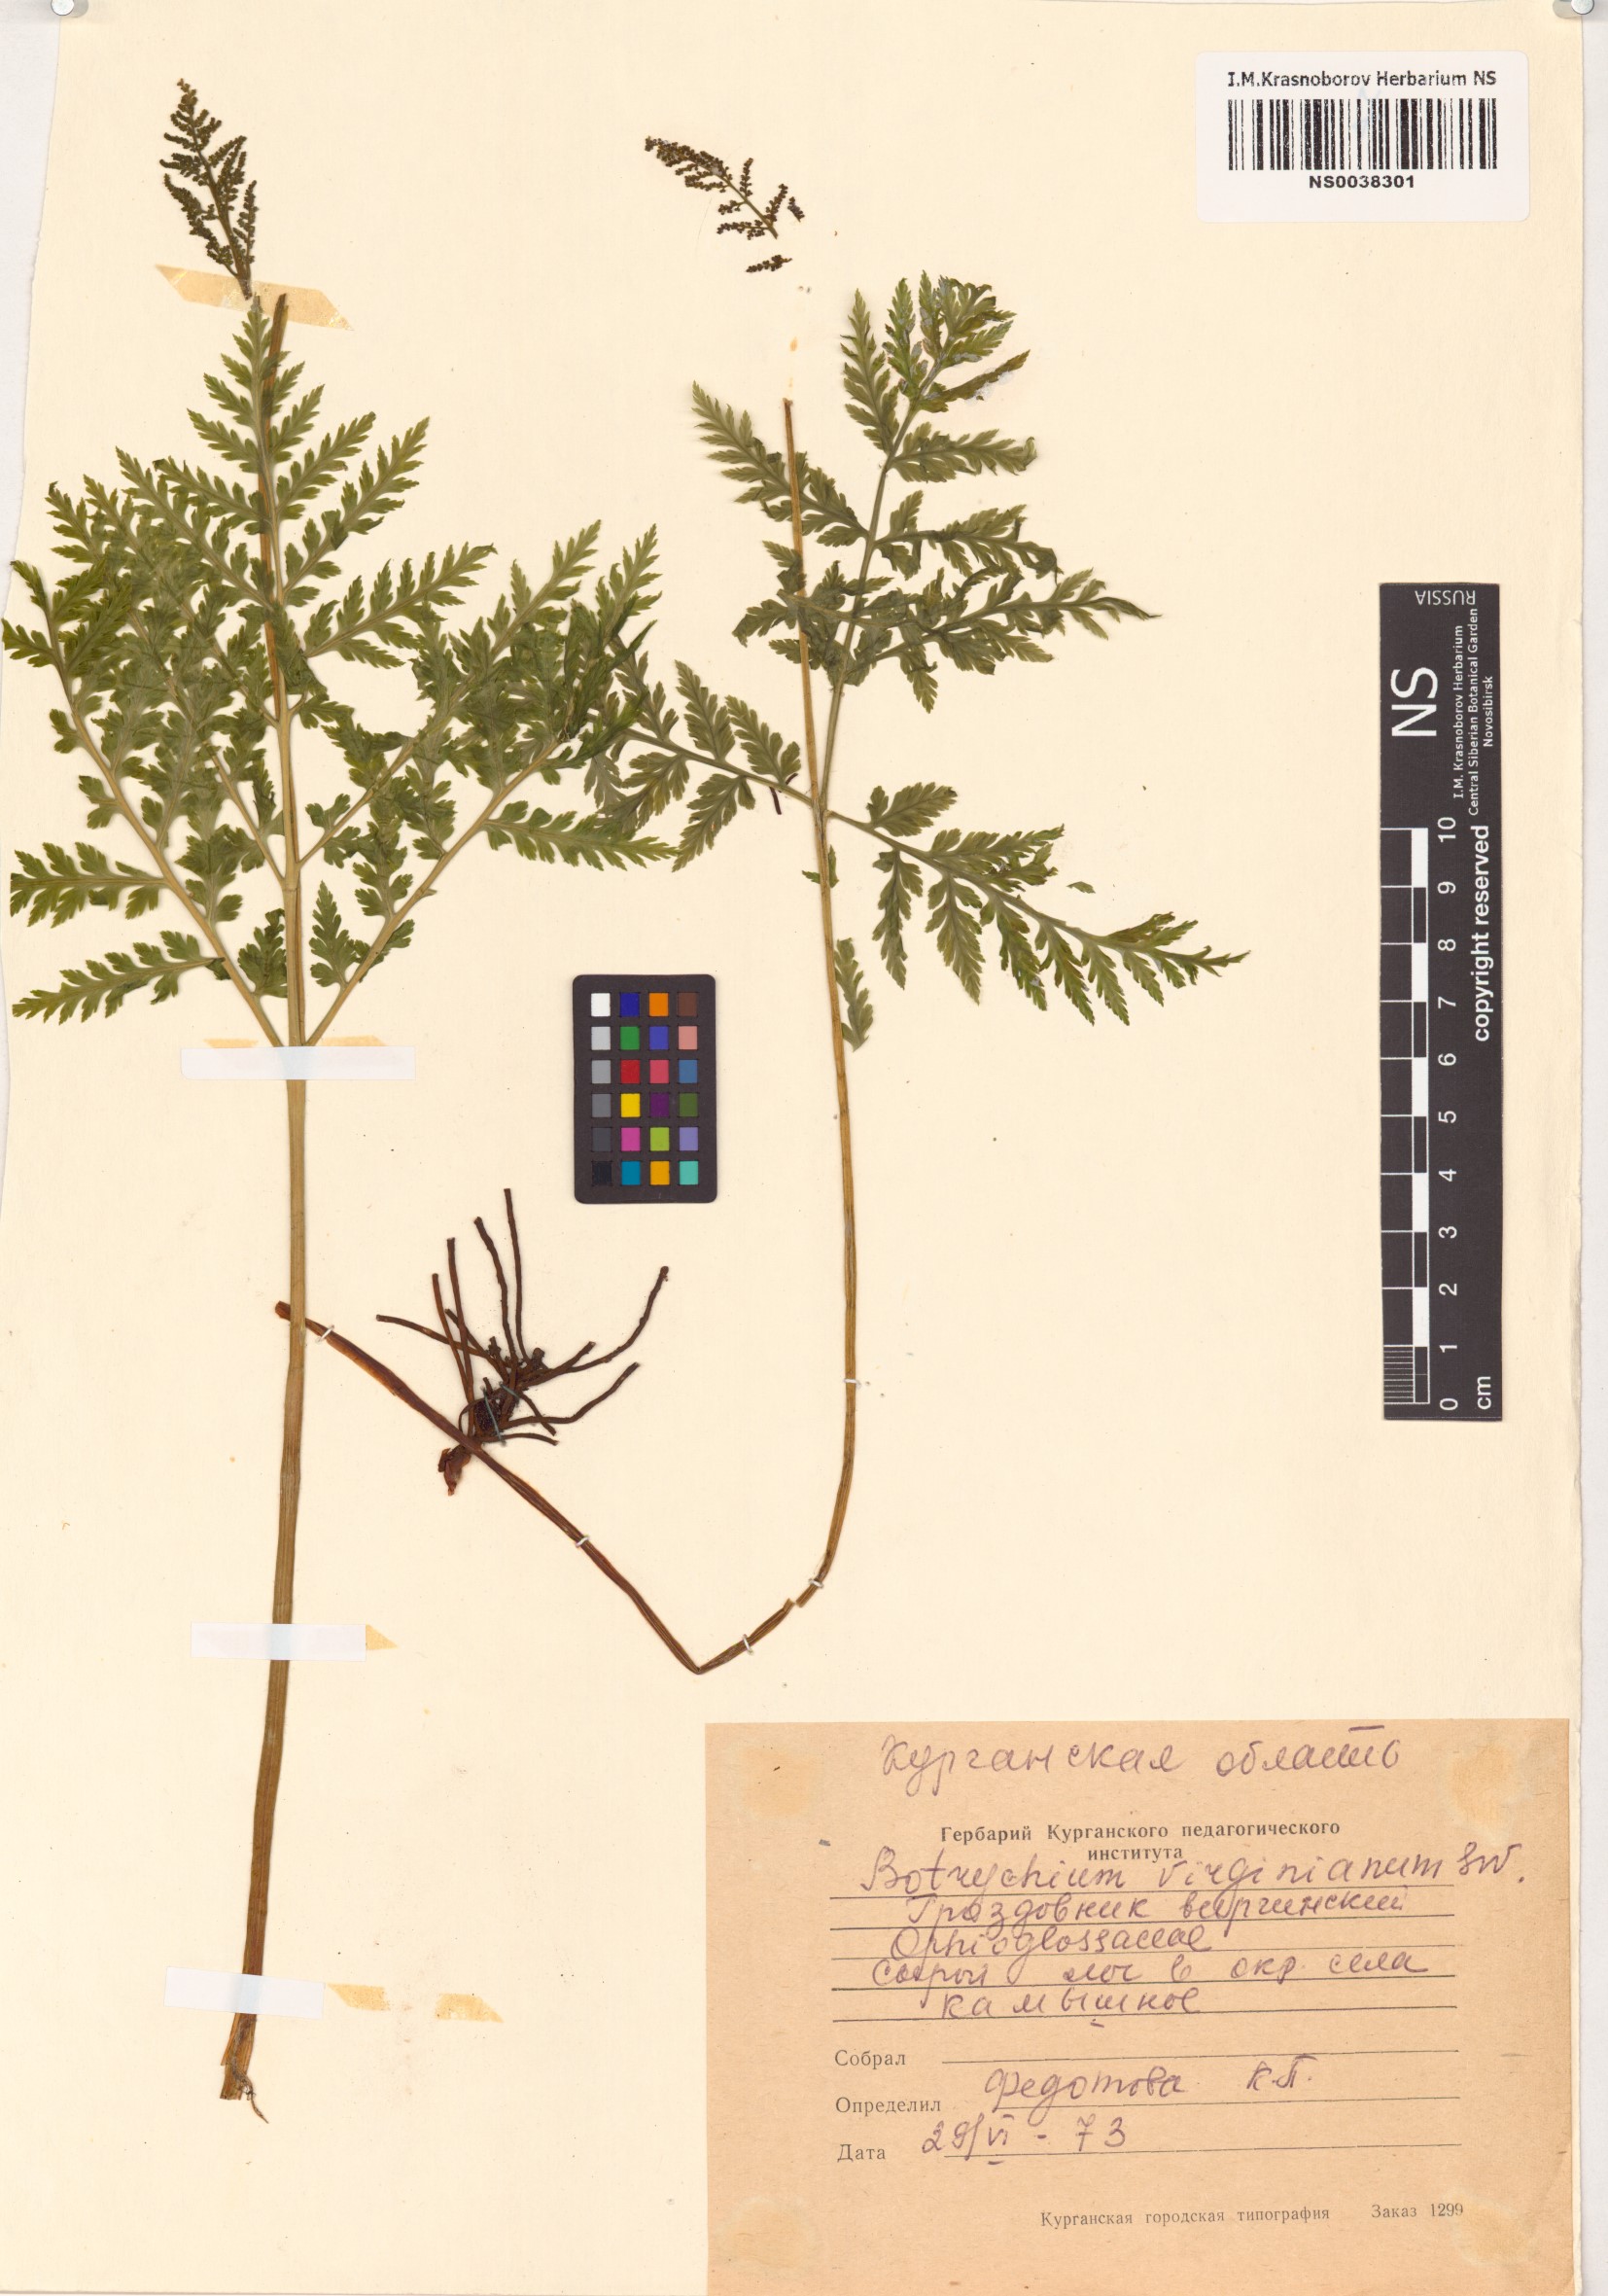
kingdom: Plantae
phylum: Tracheophyta
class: Polypodiopsida
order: Ophioglossales
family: Ophioglossaceae
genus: Botrypus
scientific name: Botrypus virginianus
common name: Common grapefern
